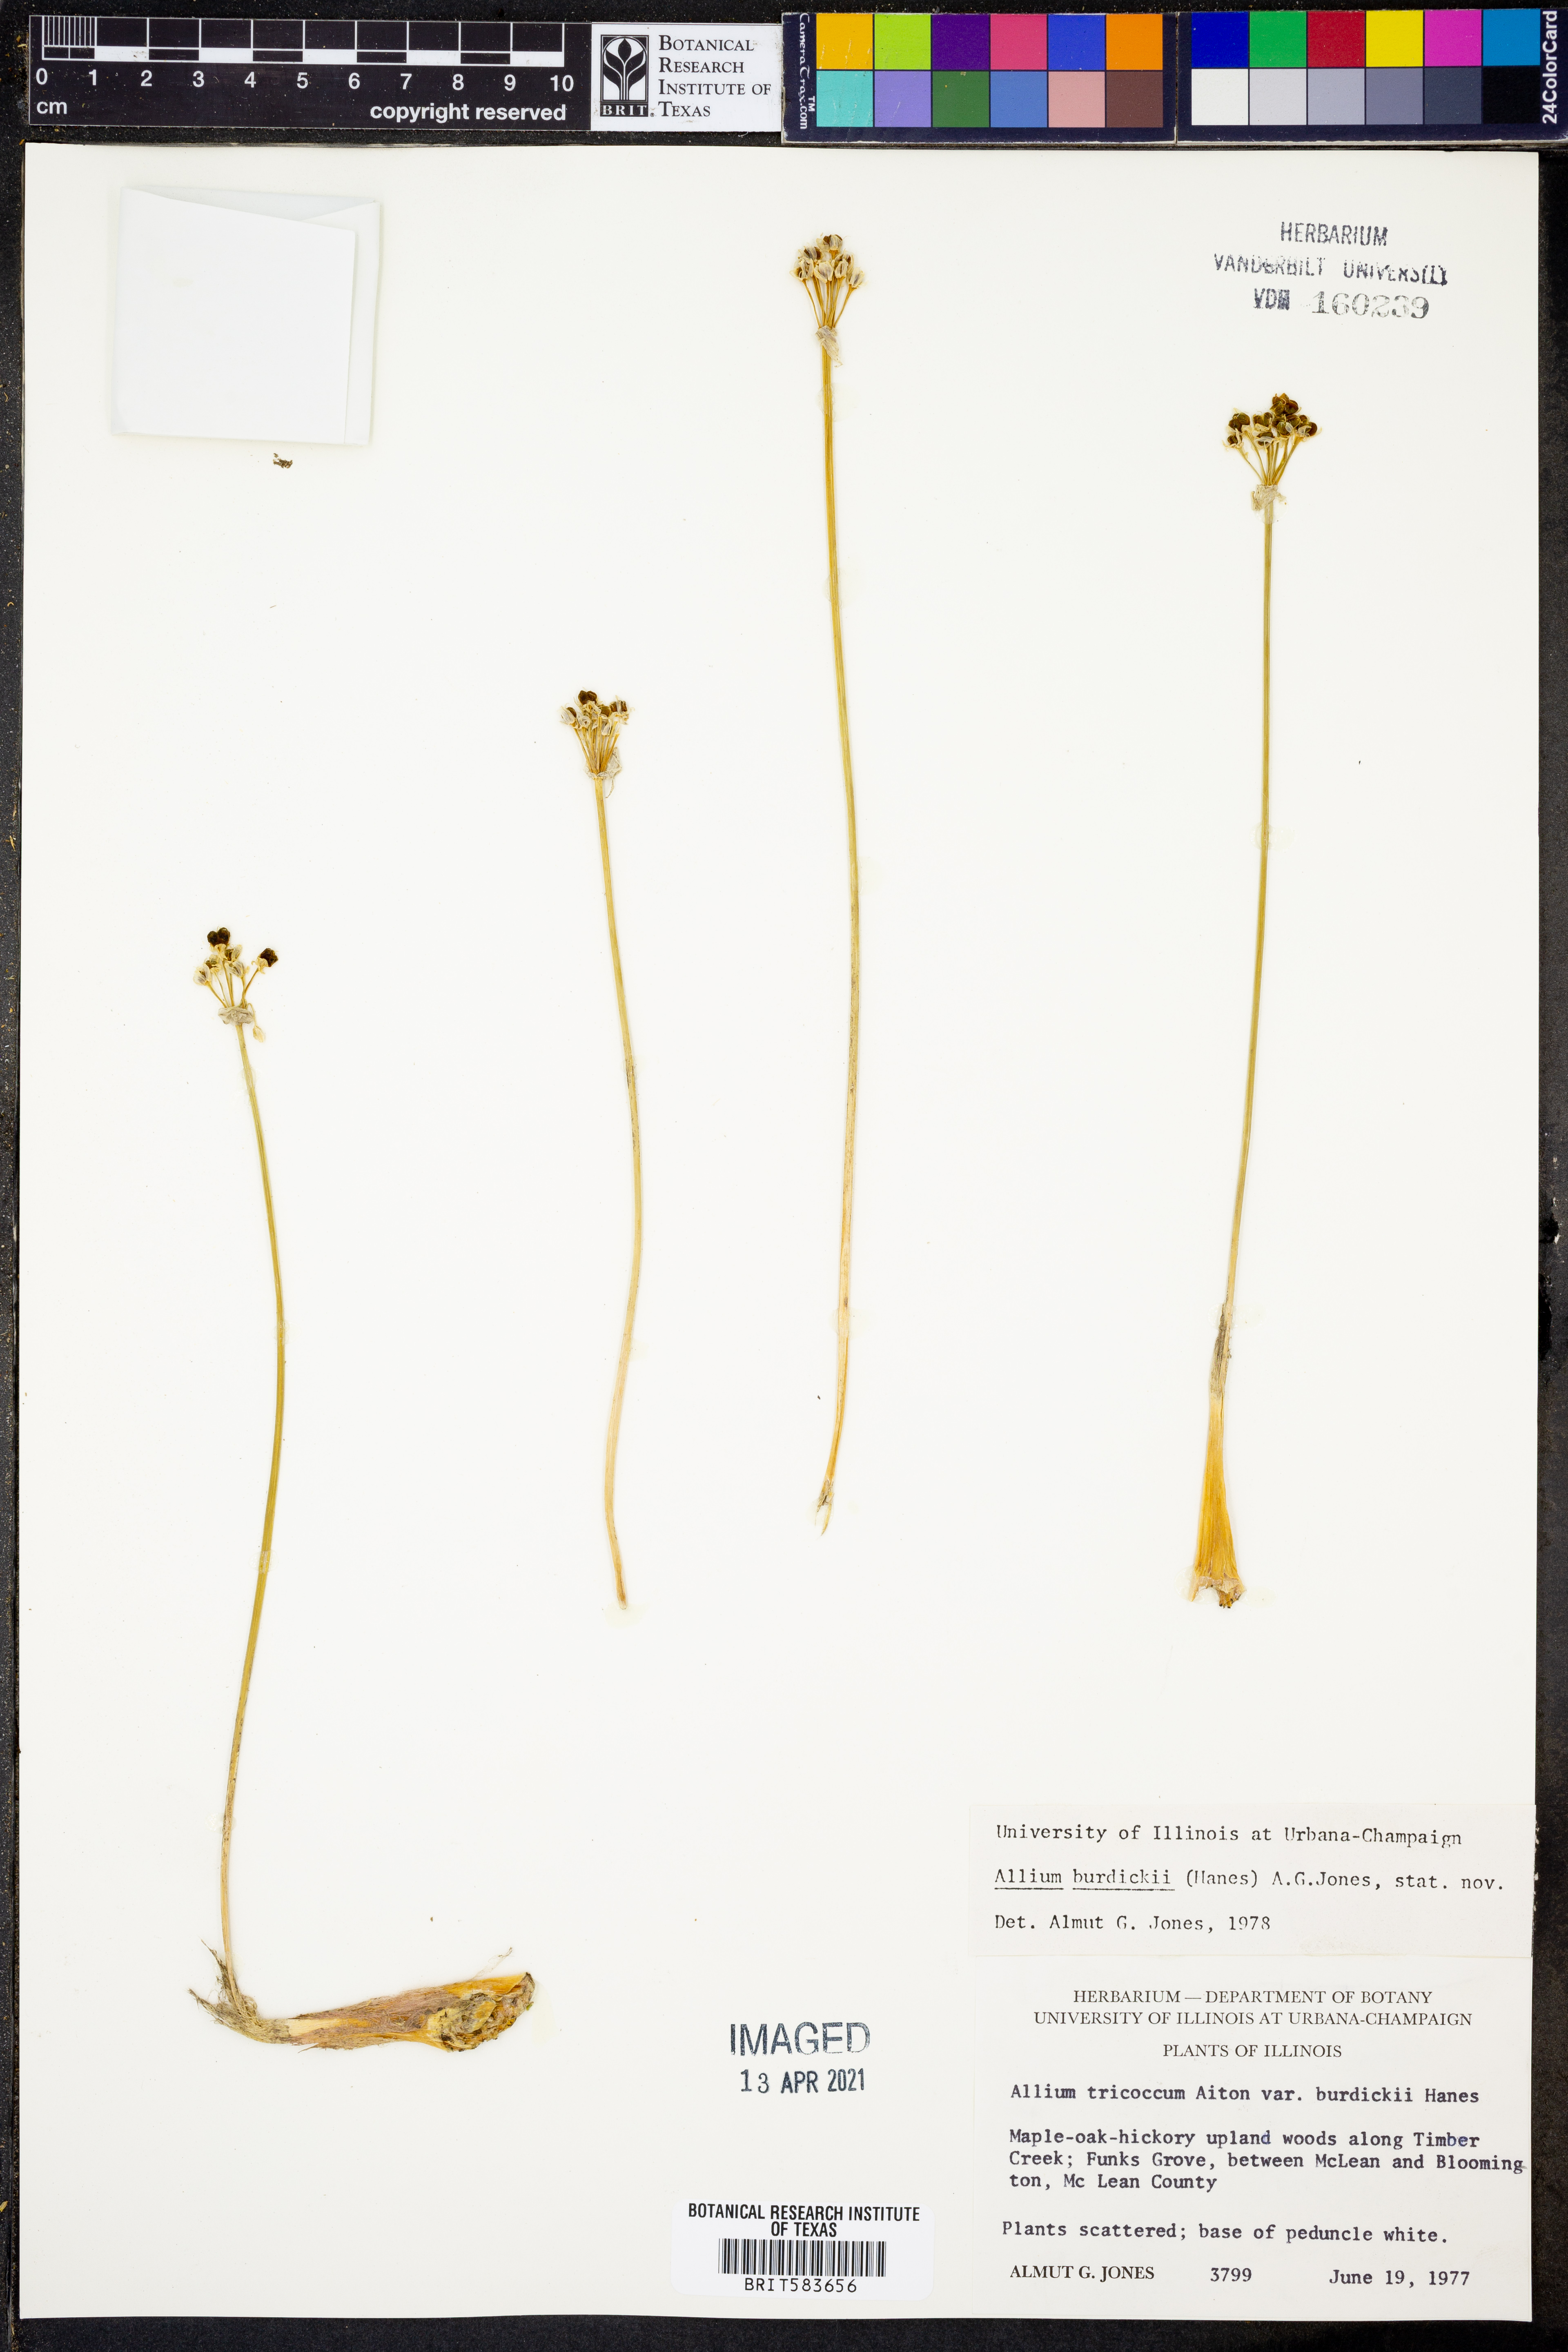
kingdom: Plantae
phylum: Tracheophyta
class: Liliopsida
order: Asparagales
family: Amaryllidaceae
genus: Allium
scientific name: Allium tricoccum
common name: Ramp
